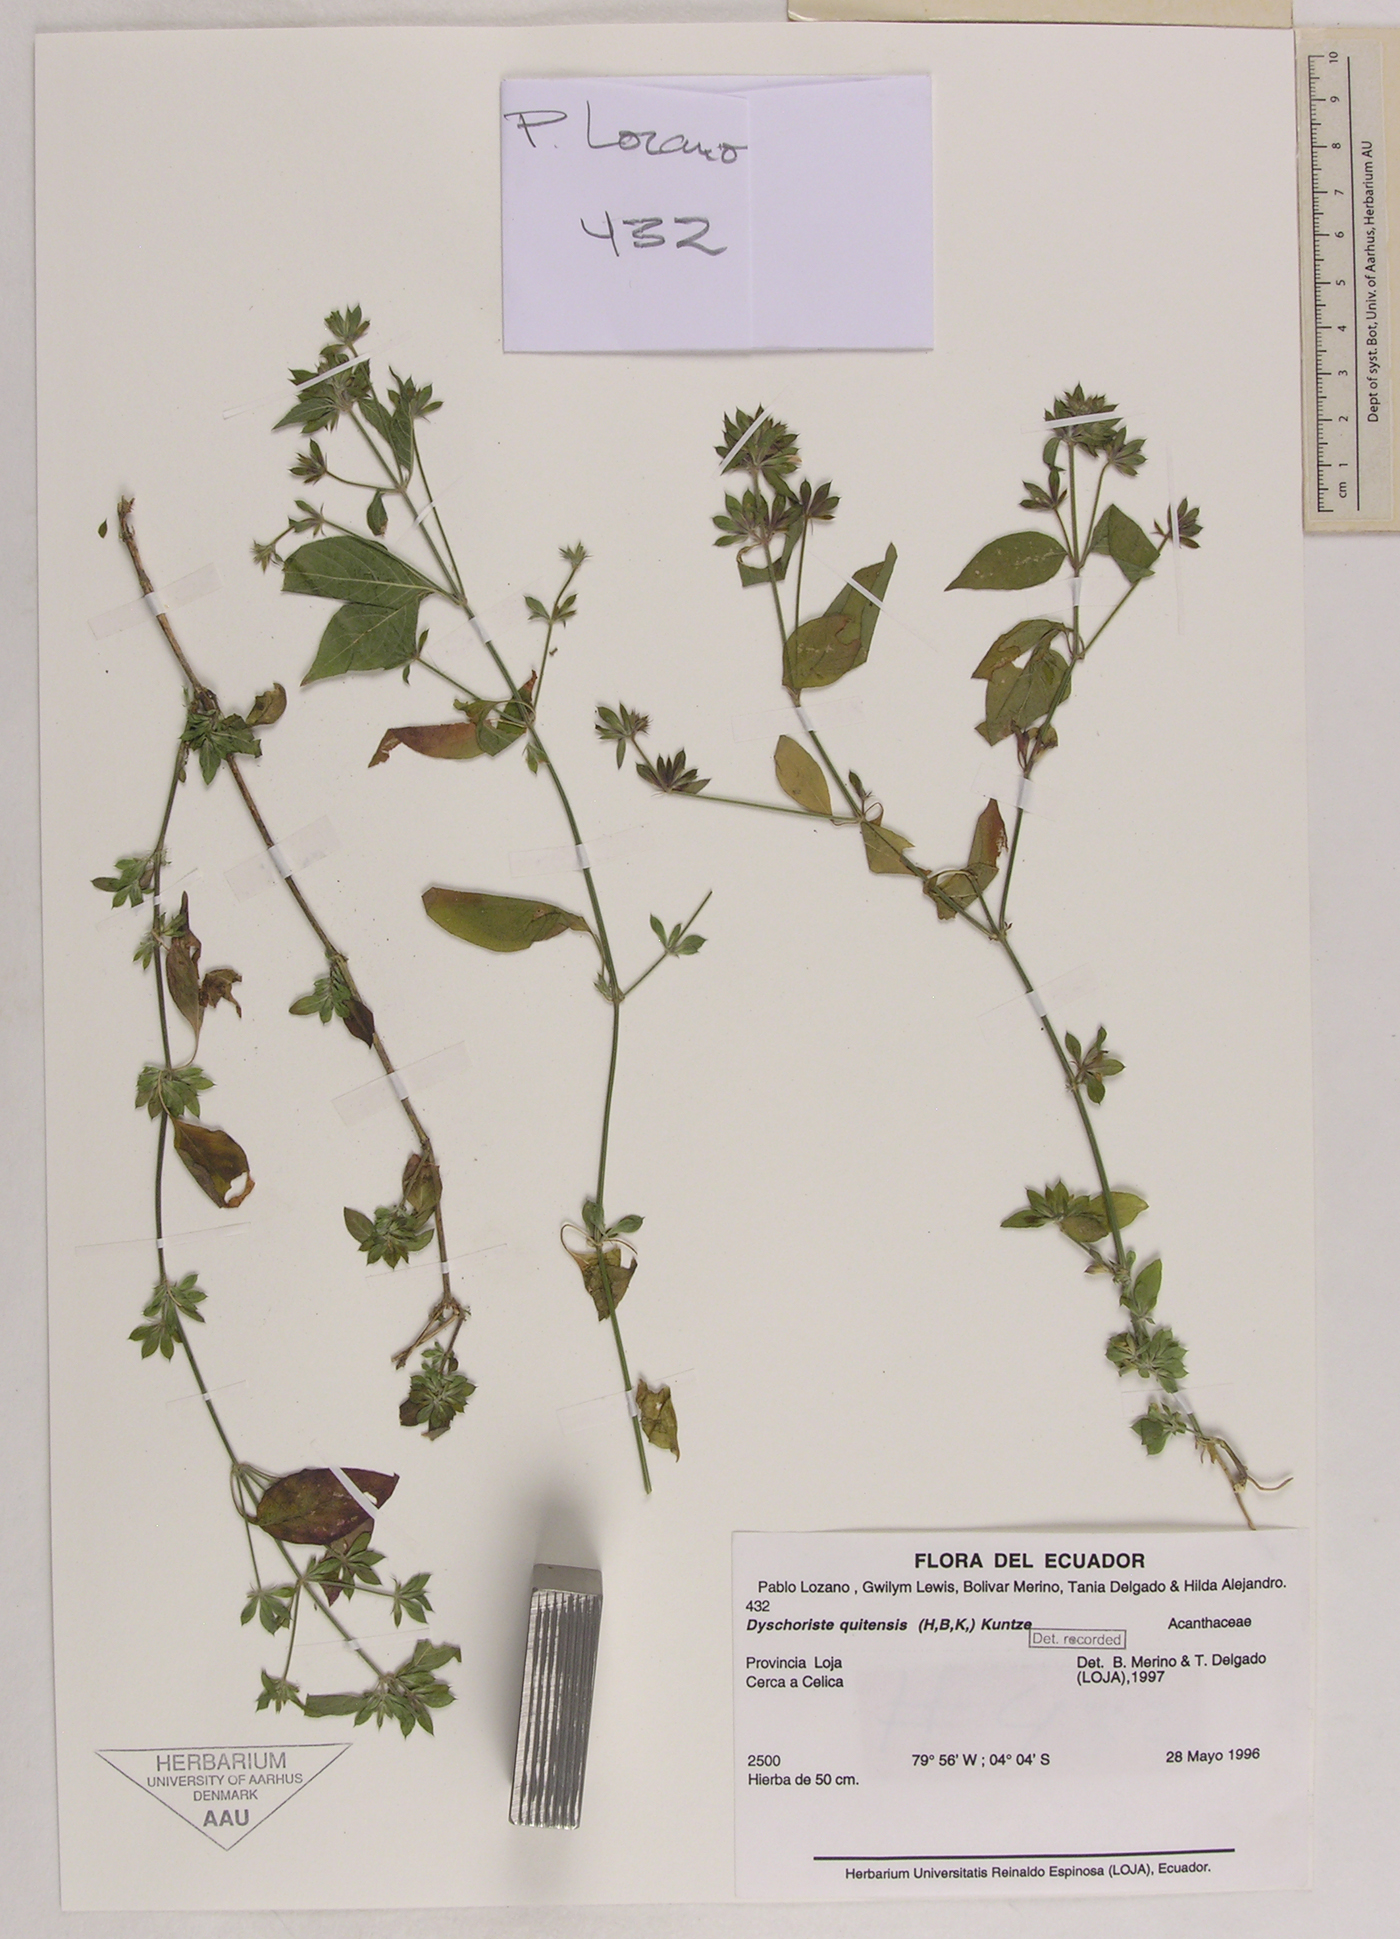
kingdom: Plantae
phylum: Tracheophyta
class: Magnoliopsida
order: Lamiales
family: Acanthaceae
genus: Dyschoriste
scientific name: Dyschoriste quitensis
